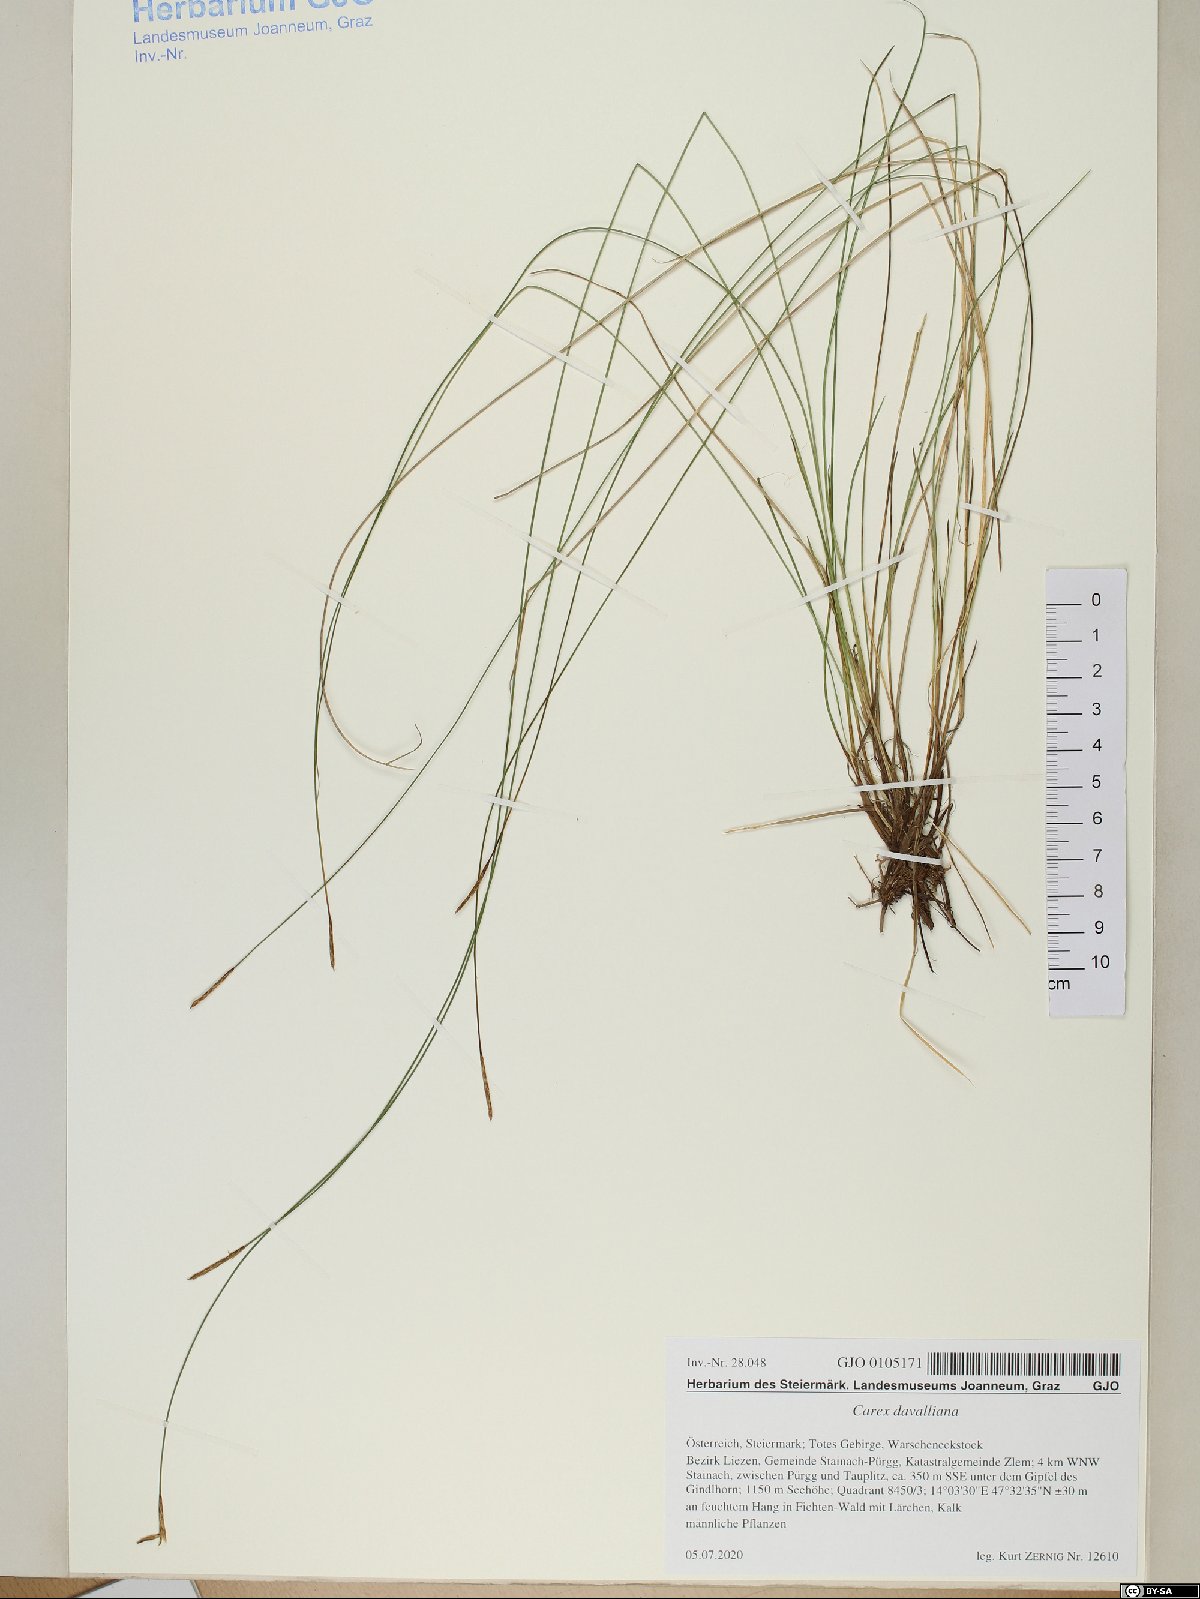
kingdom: Plantae
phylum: Tracheophyta
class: Liliopsida
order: Poales
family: Cyperaceae
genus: Carex
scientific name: Carex davalliana
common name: Davall's sedge
